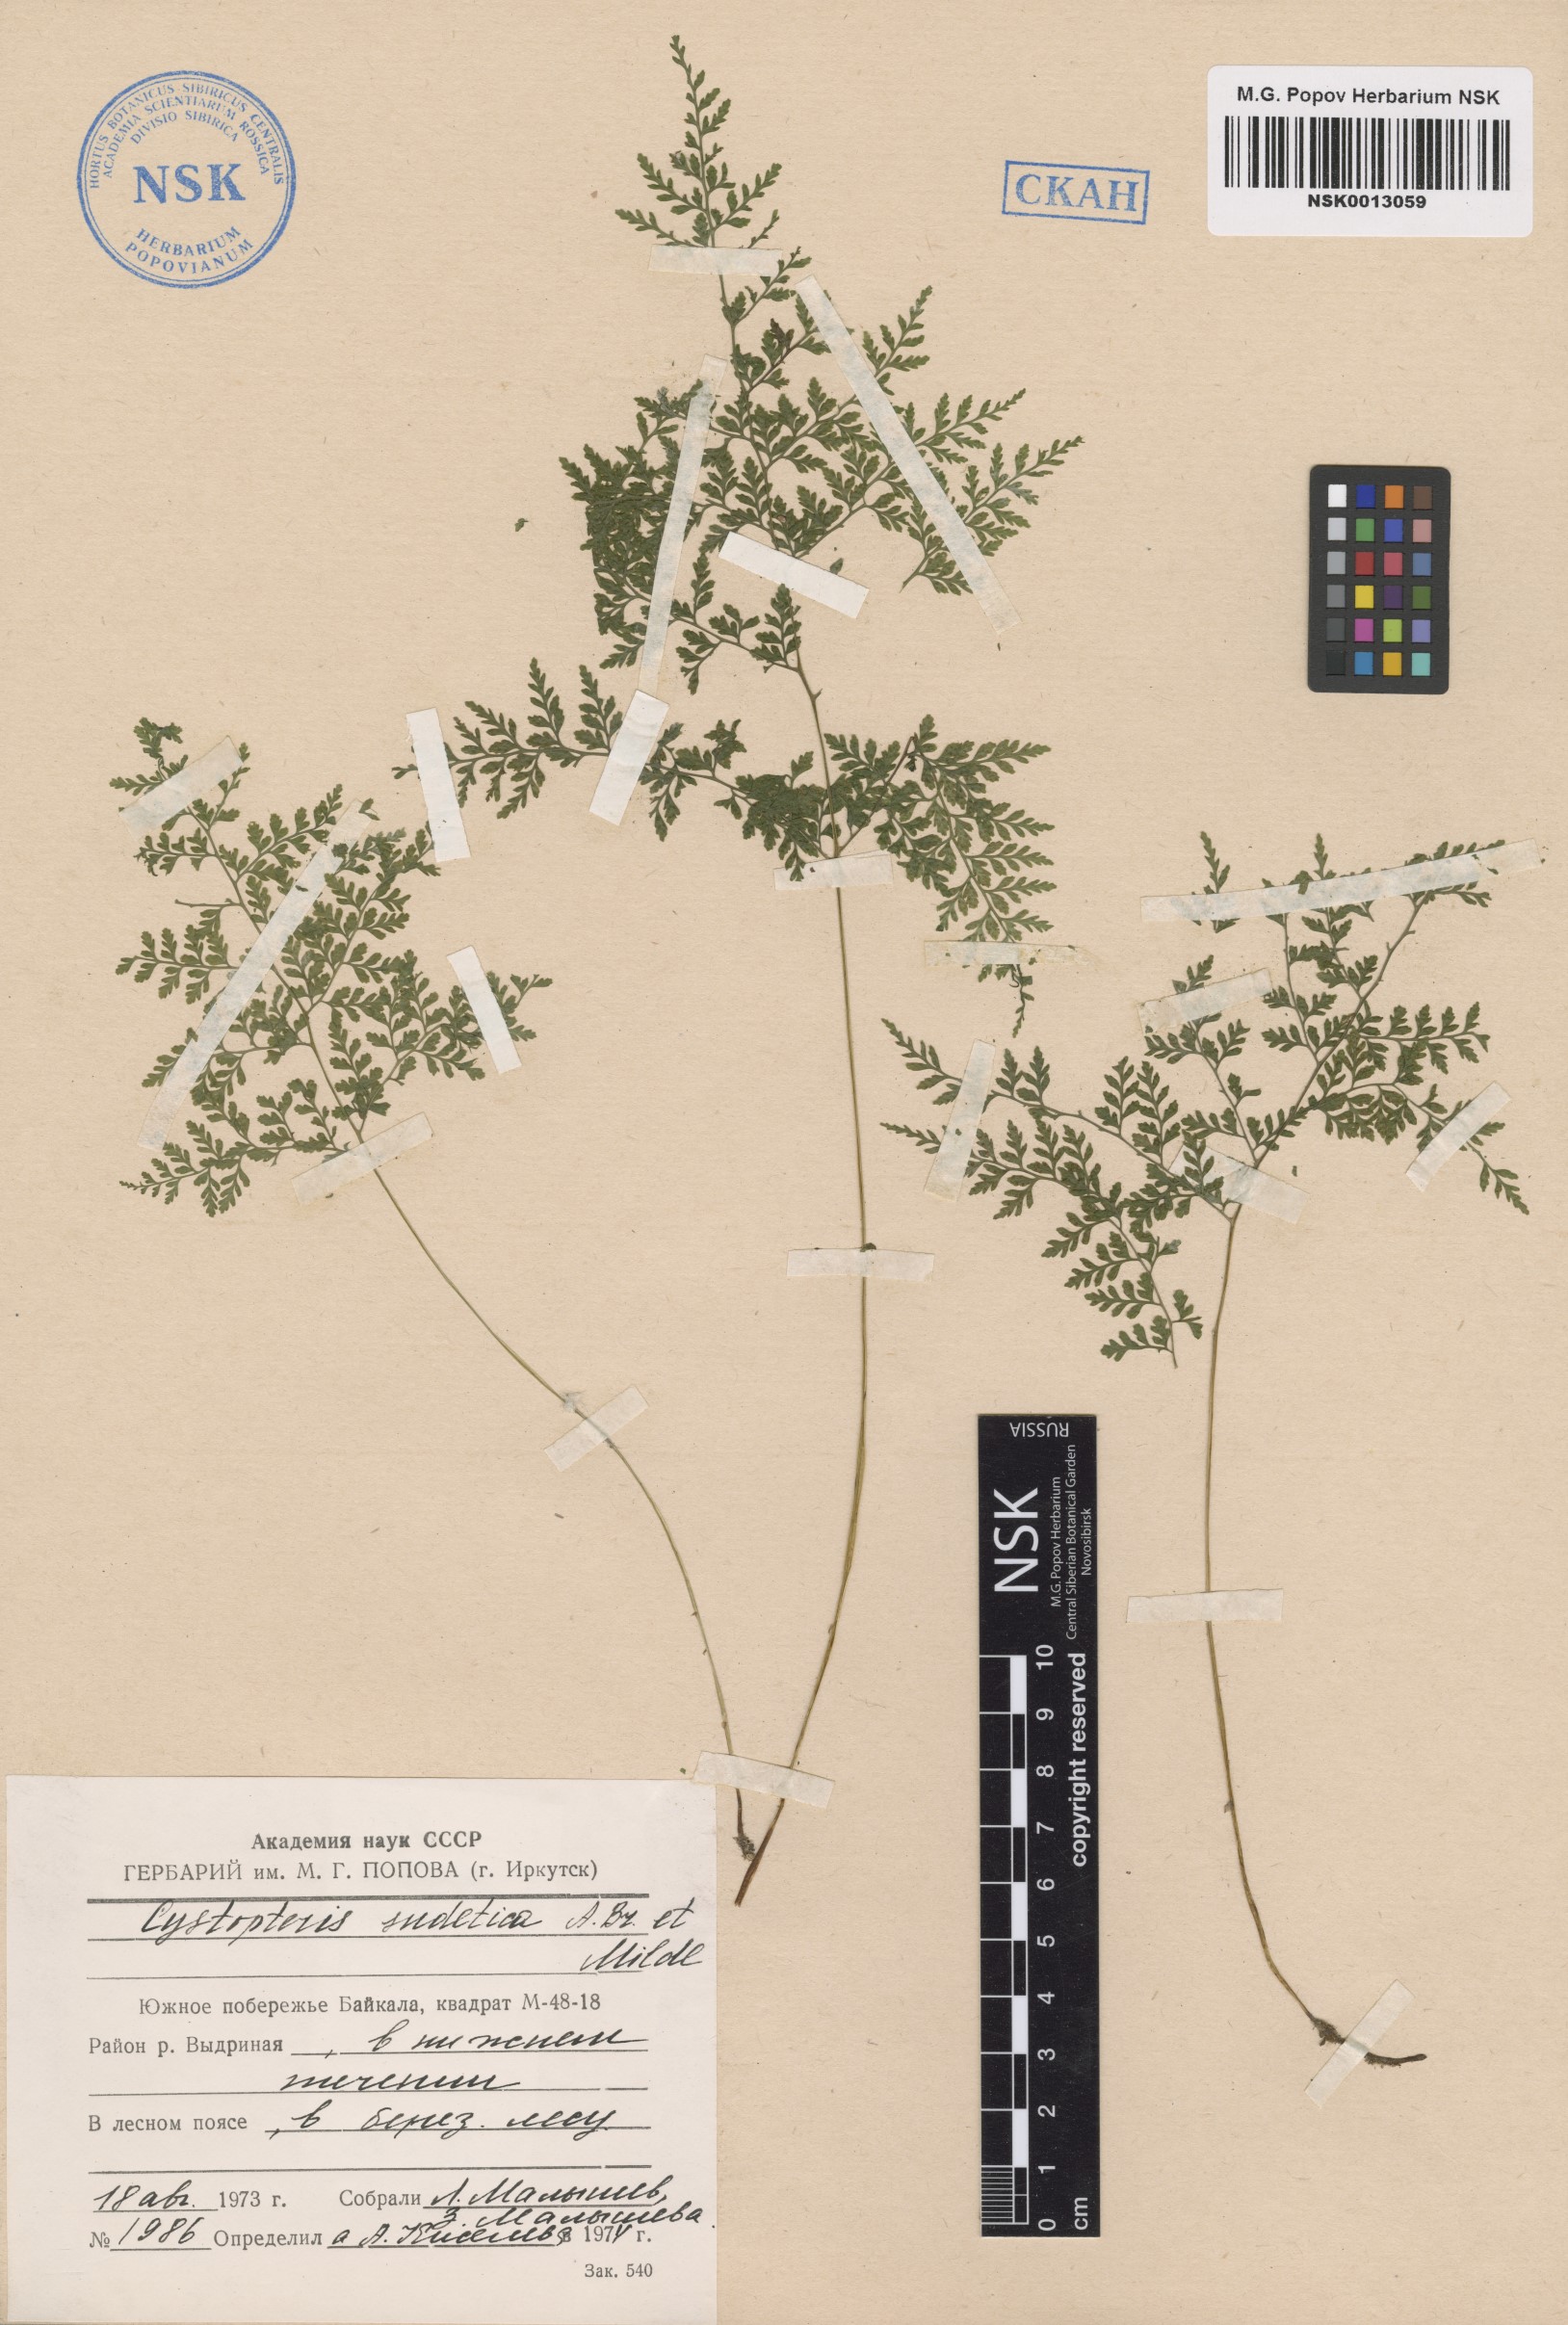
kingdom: Plantae
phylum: Tracheophyta
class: Polypodiopsida
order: Polypodiales
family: Cystopteridaceae
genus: Cystopteris
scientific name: Cystopteris sudetica
